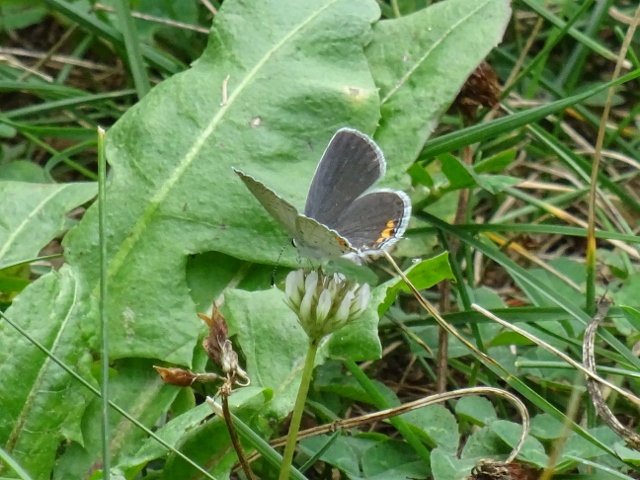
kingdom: Animalia
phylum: Arthropoda
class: Insecta
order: Lepidoptera
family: Lycaenidae
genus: Elkalyce
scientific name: Elkalyce comyntas
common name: Eastern Tailed-Blue
